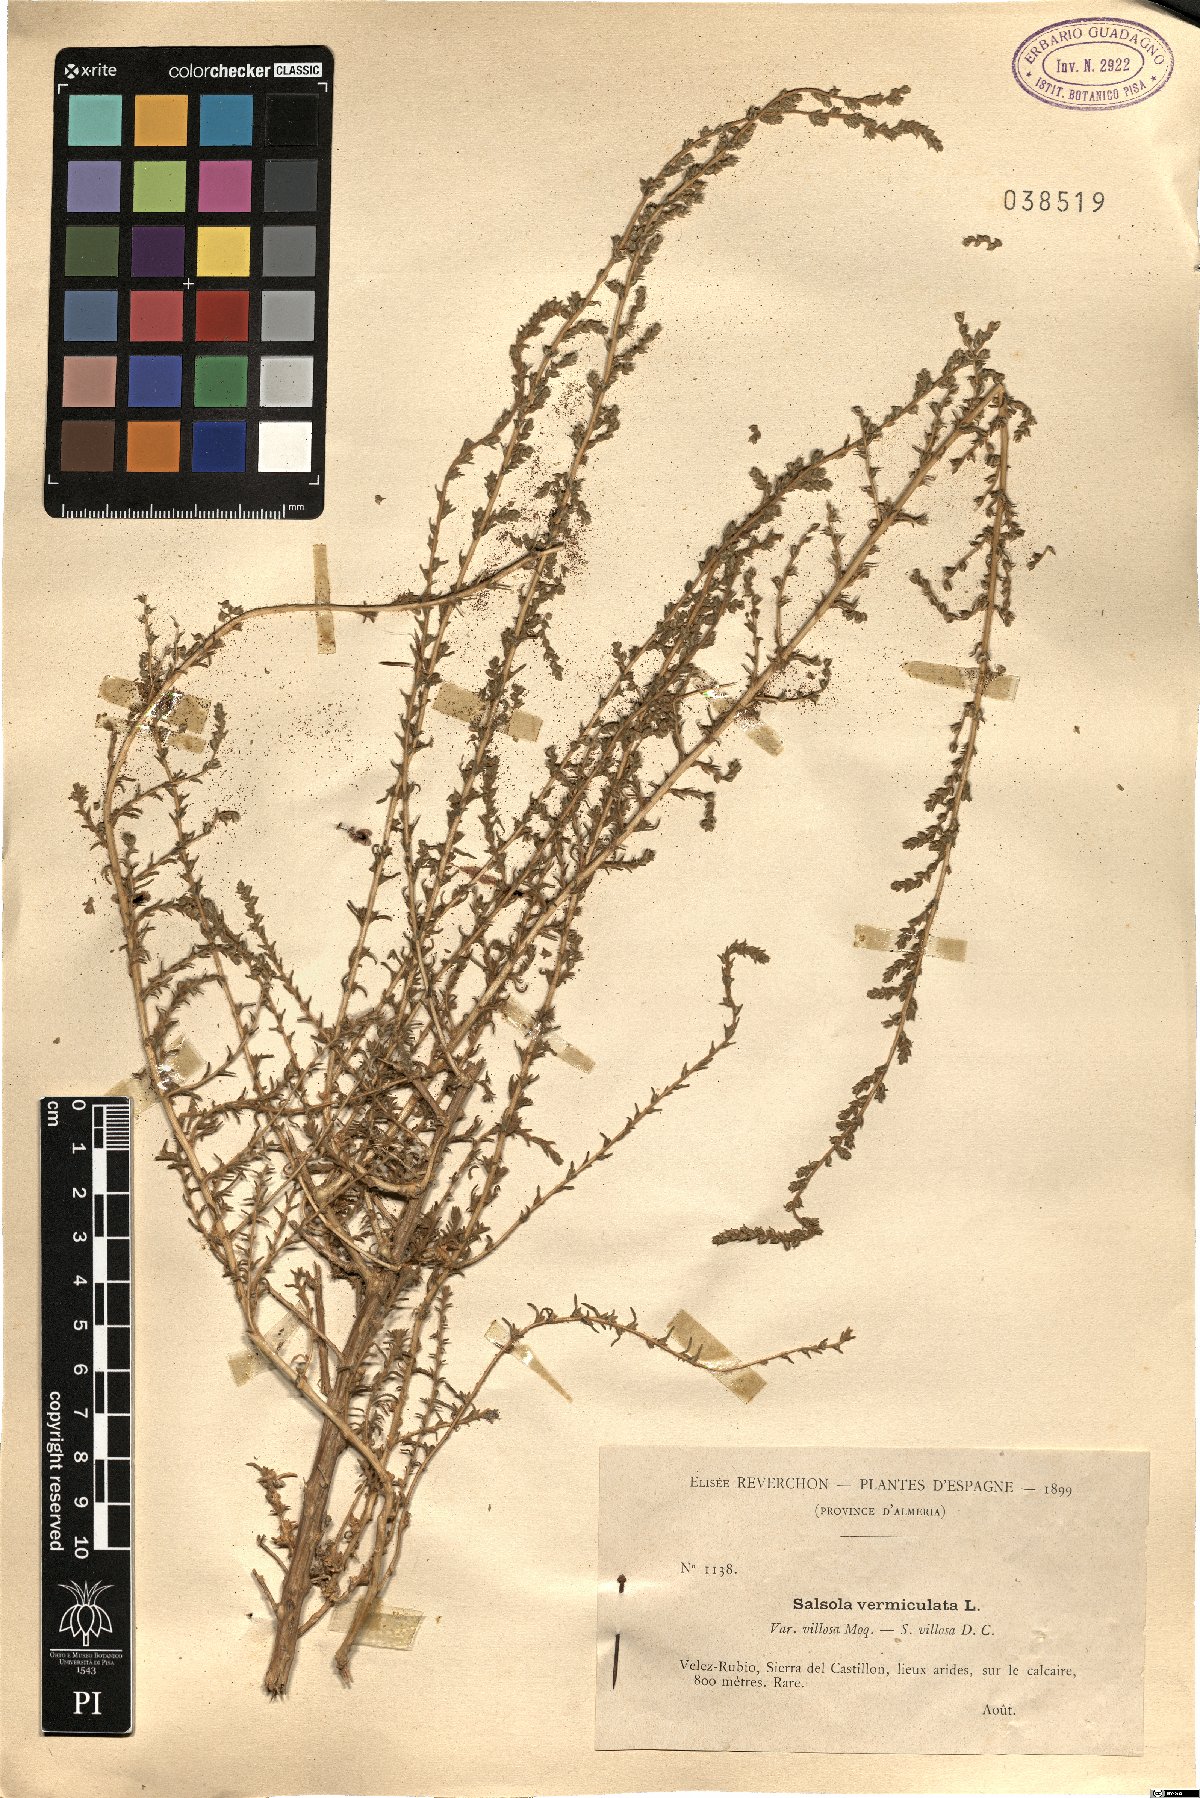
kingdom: Plantae
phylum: Tracheophyta
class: Magnoliopsida
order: Caryophyllales
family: Amaranthaceae
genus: Nitrosalsola
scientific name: Nitrosalsola vermiculata
